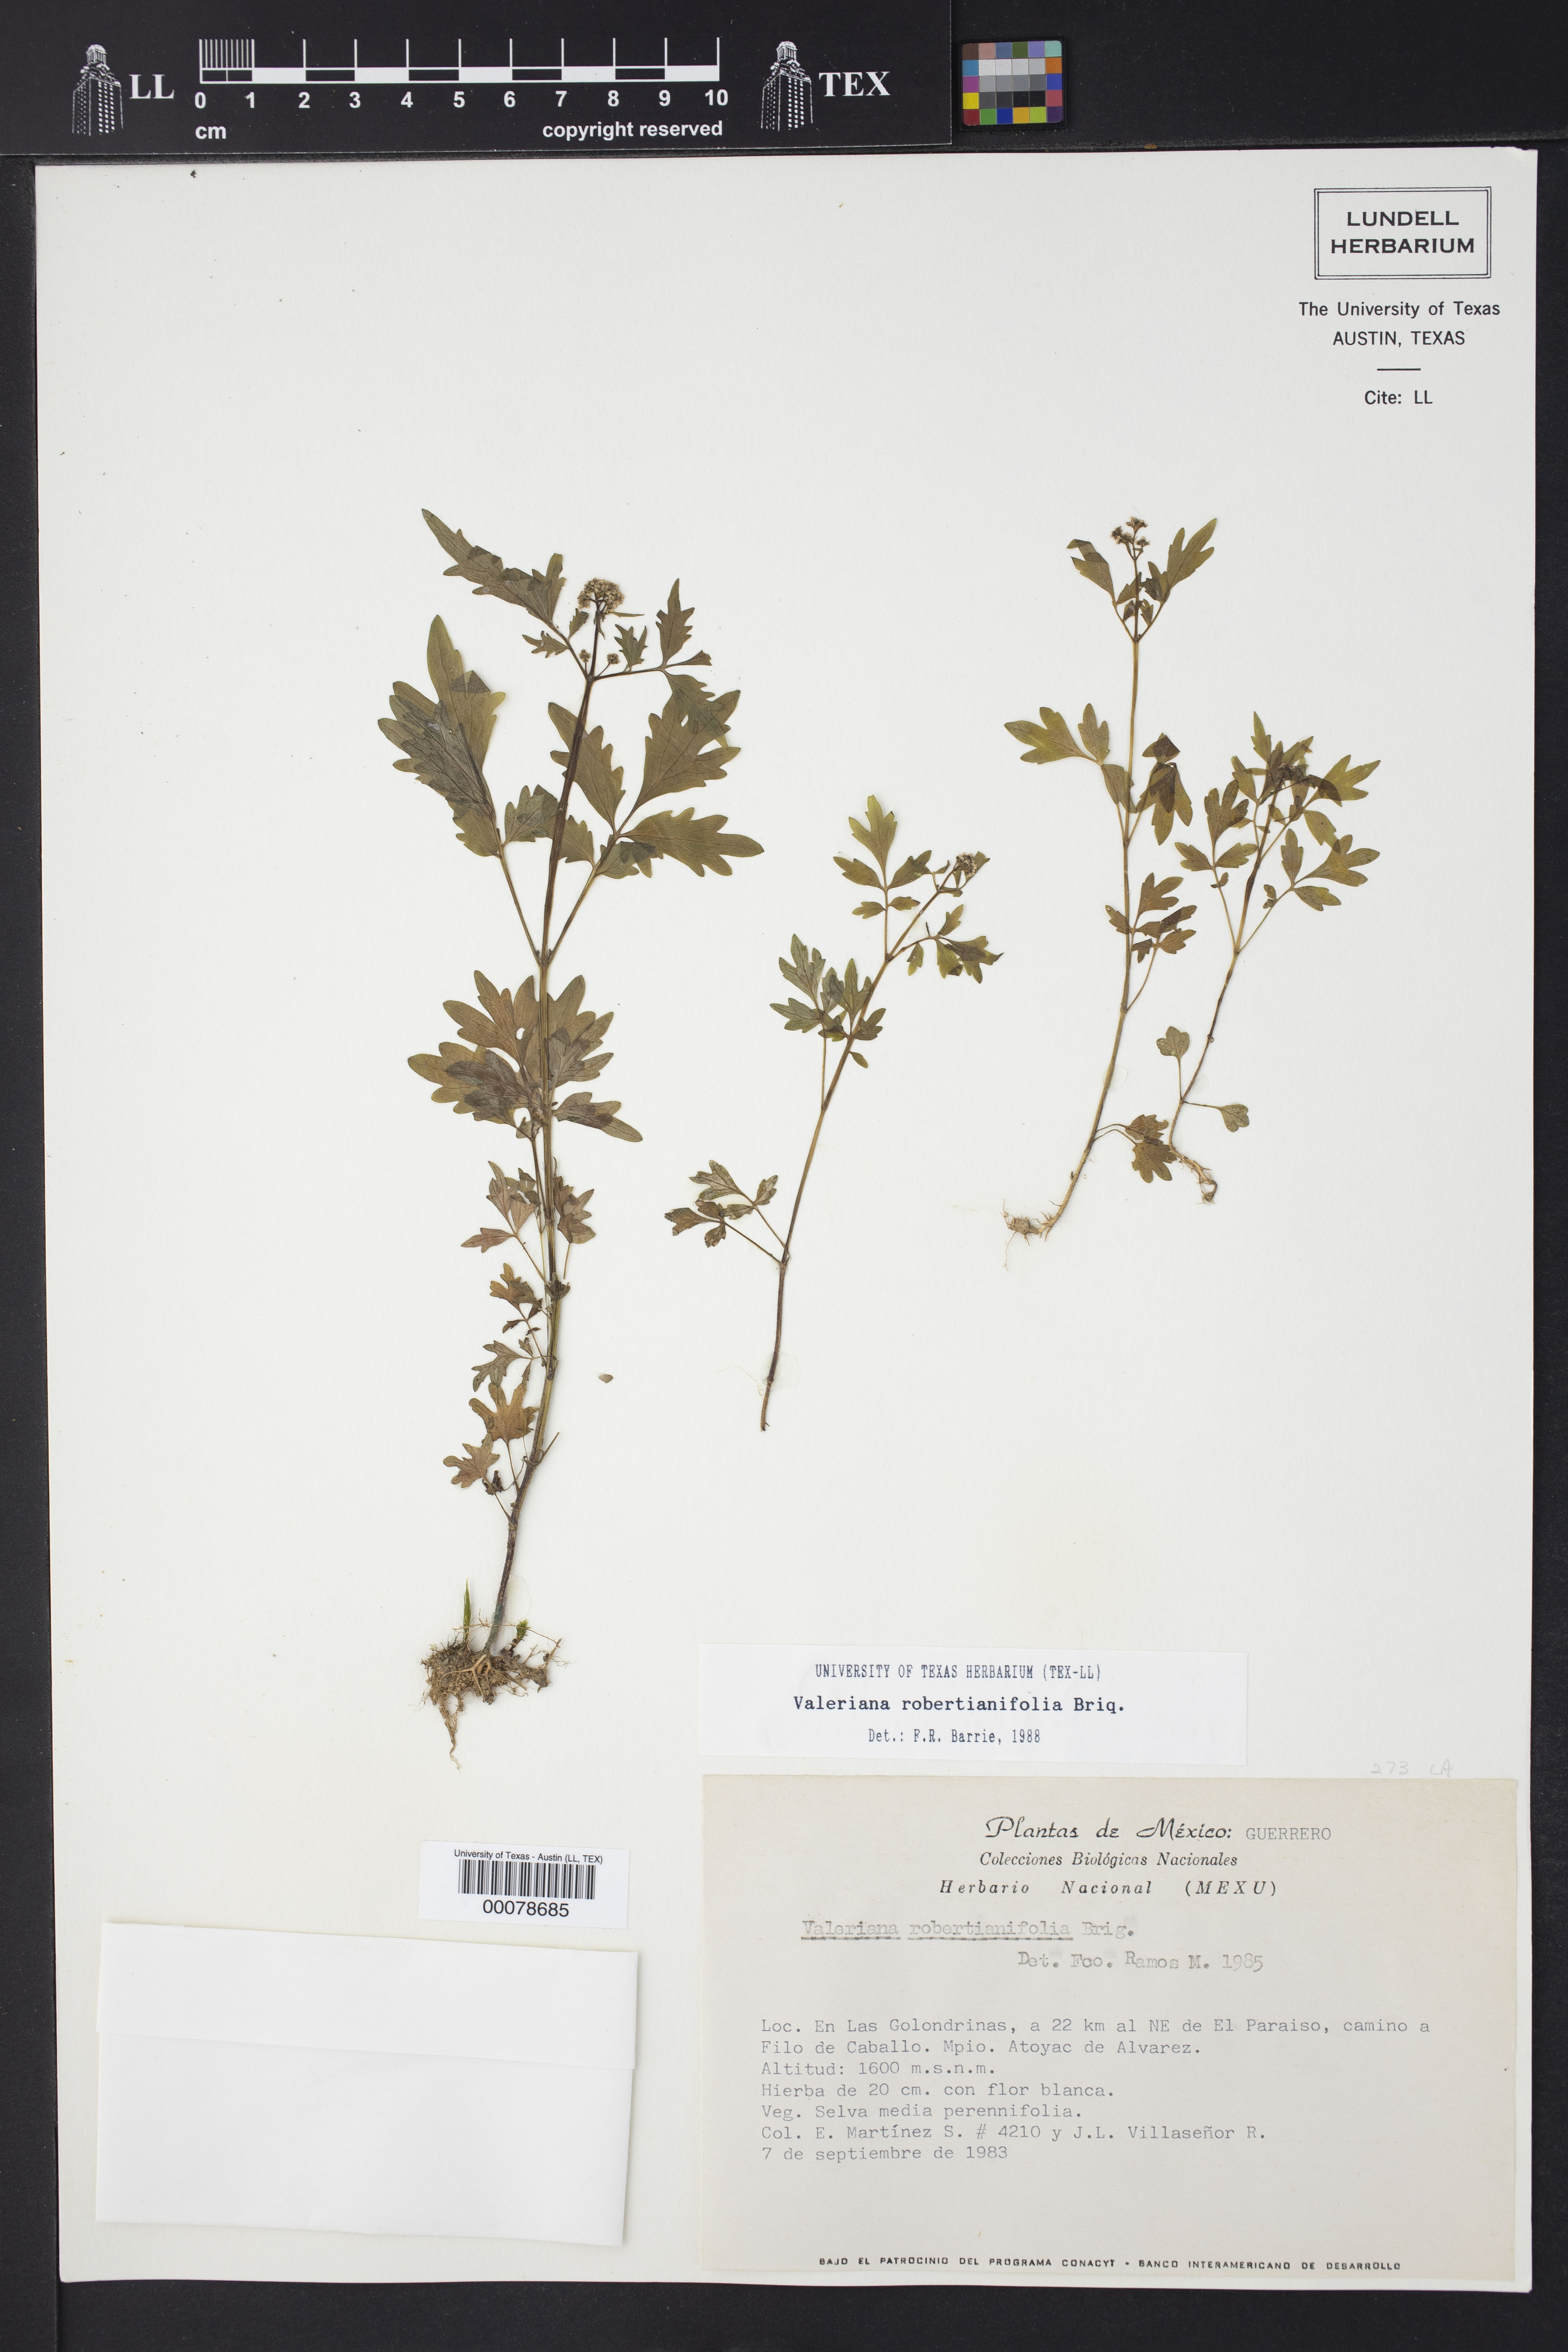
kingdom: Plantae
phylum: Tracheophyta
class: Magnoliopsida
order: Dipsacales
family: Caprifoliaceae
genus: Valeriana
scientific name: Valeriana robertianifolia
